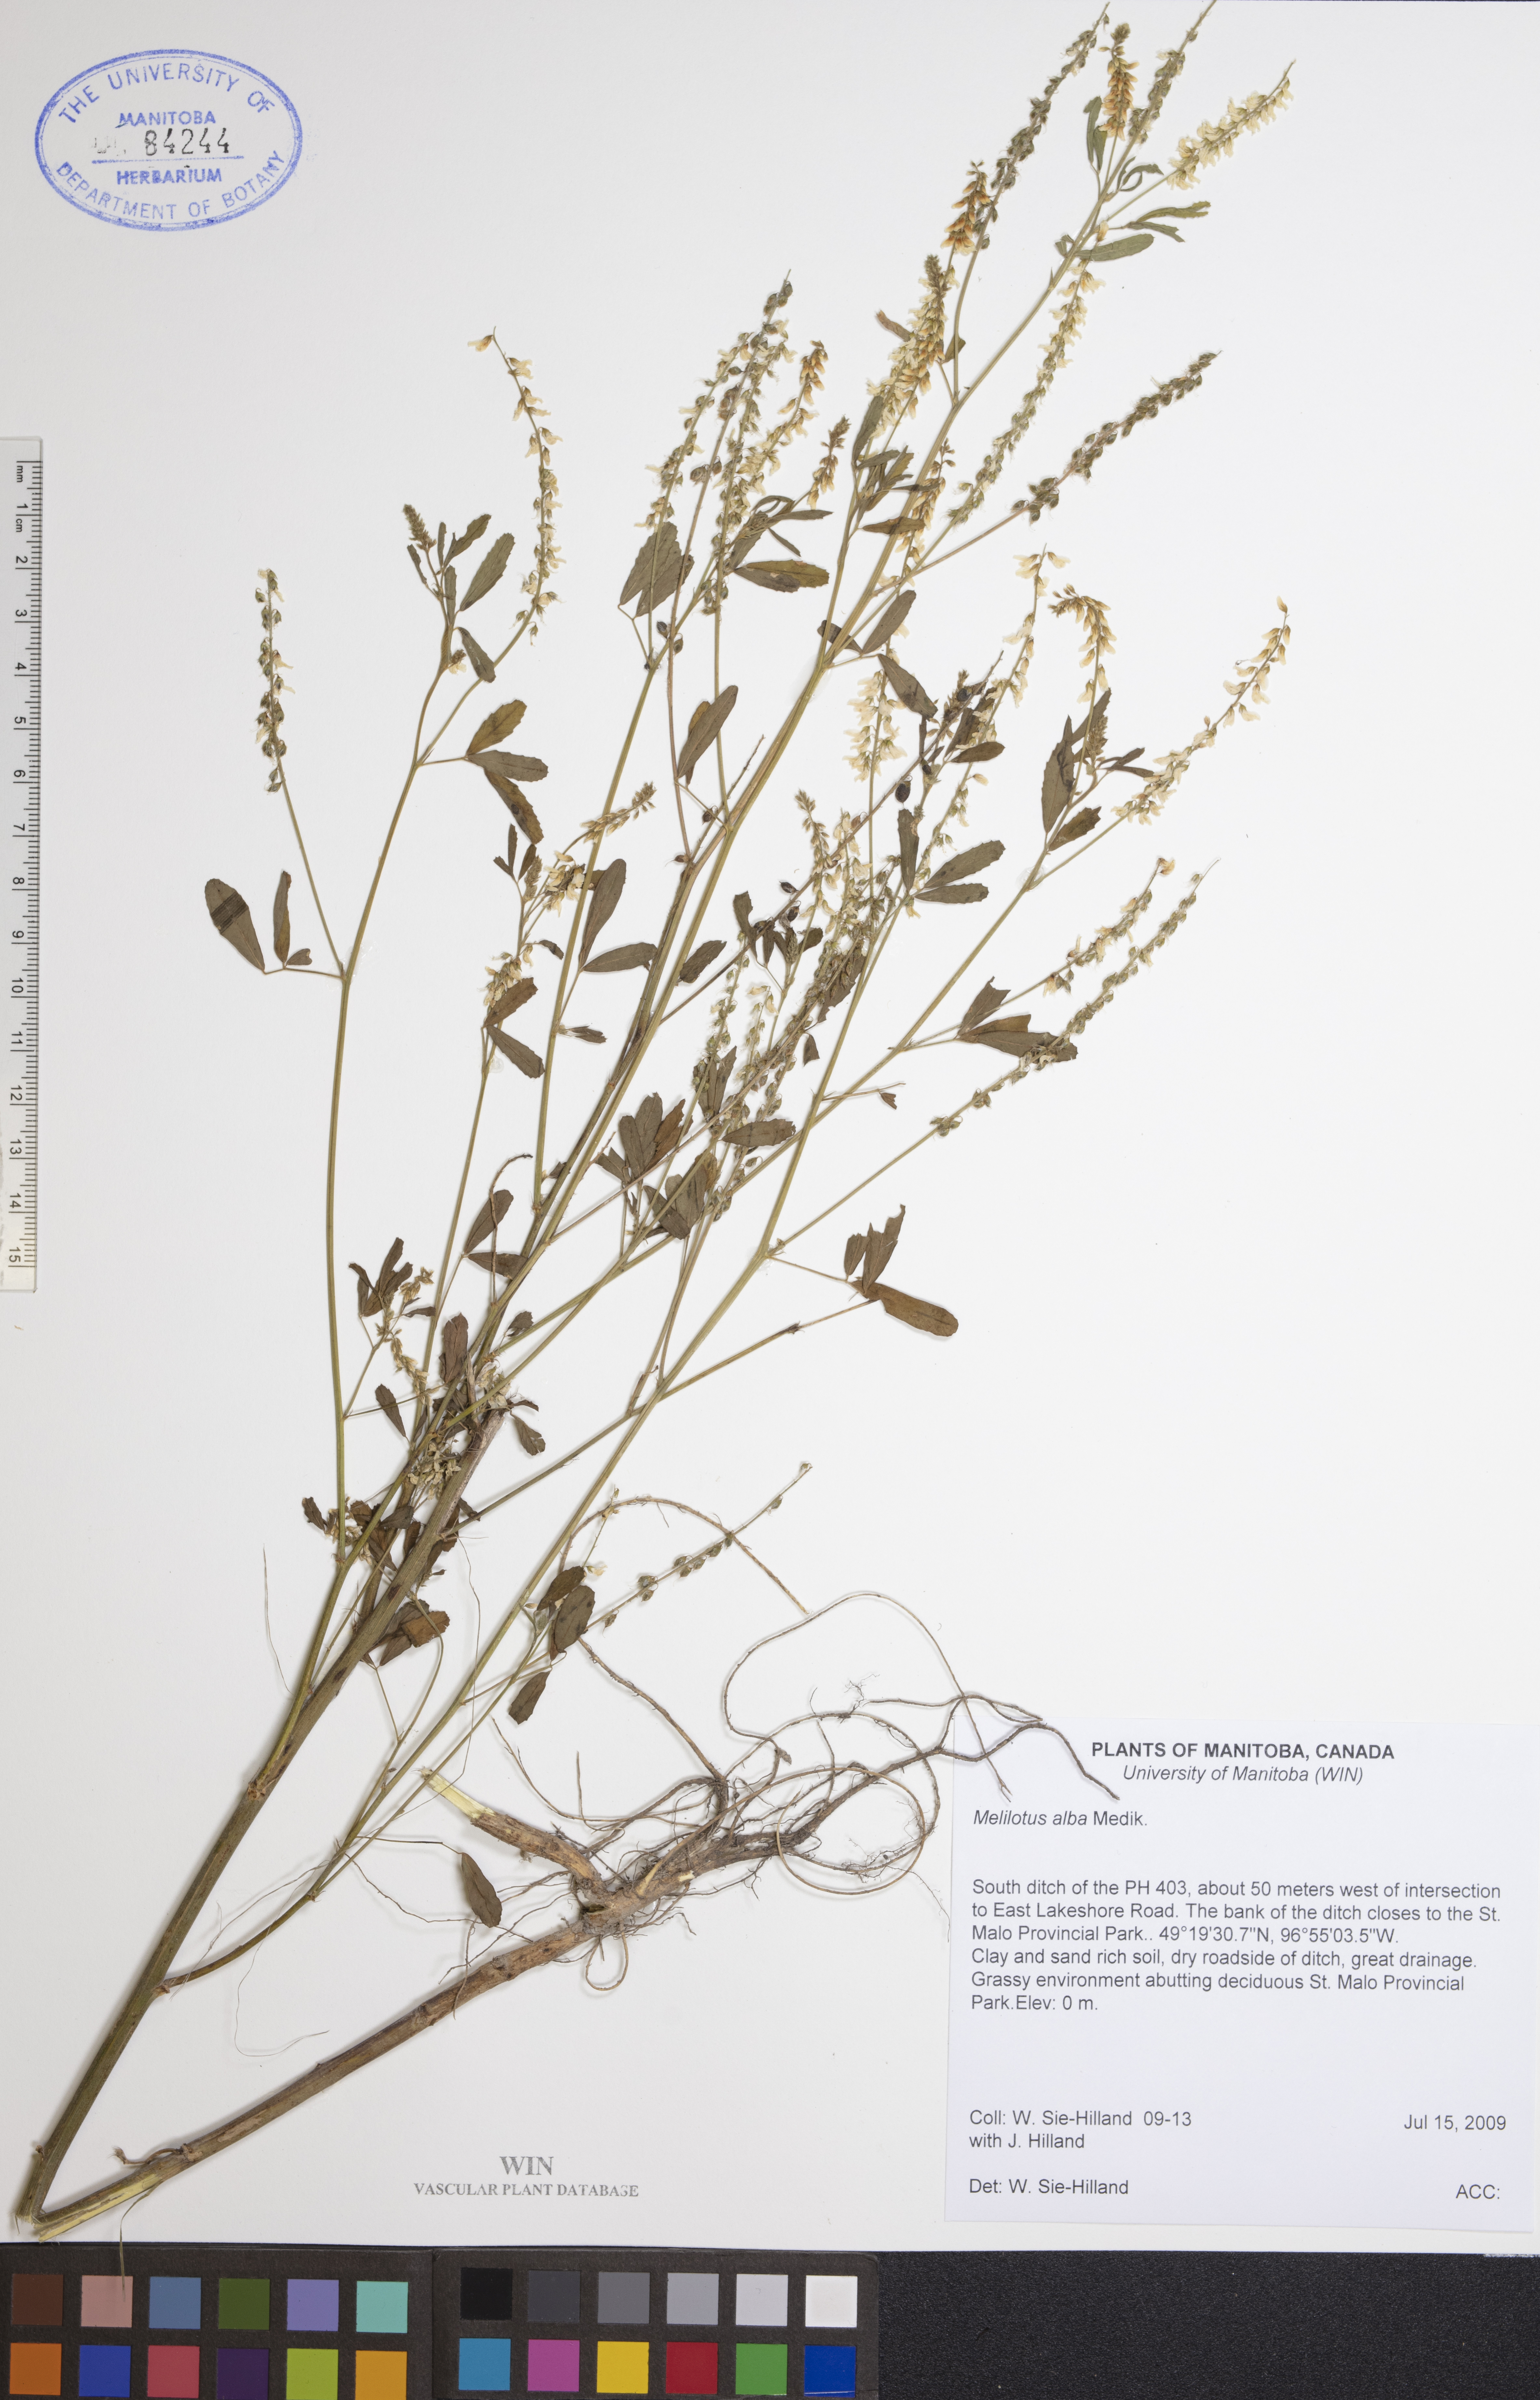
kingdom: Plantae
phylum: Tracheophyta
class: Magnoliopsida
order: Fabales
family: Fabaceae
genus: Melilotus
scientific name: Melilotus albus
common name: White melilot
